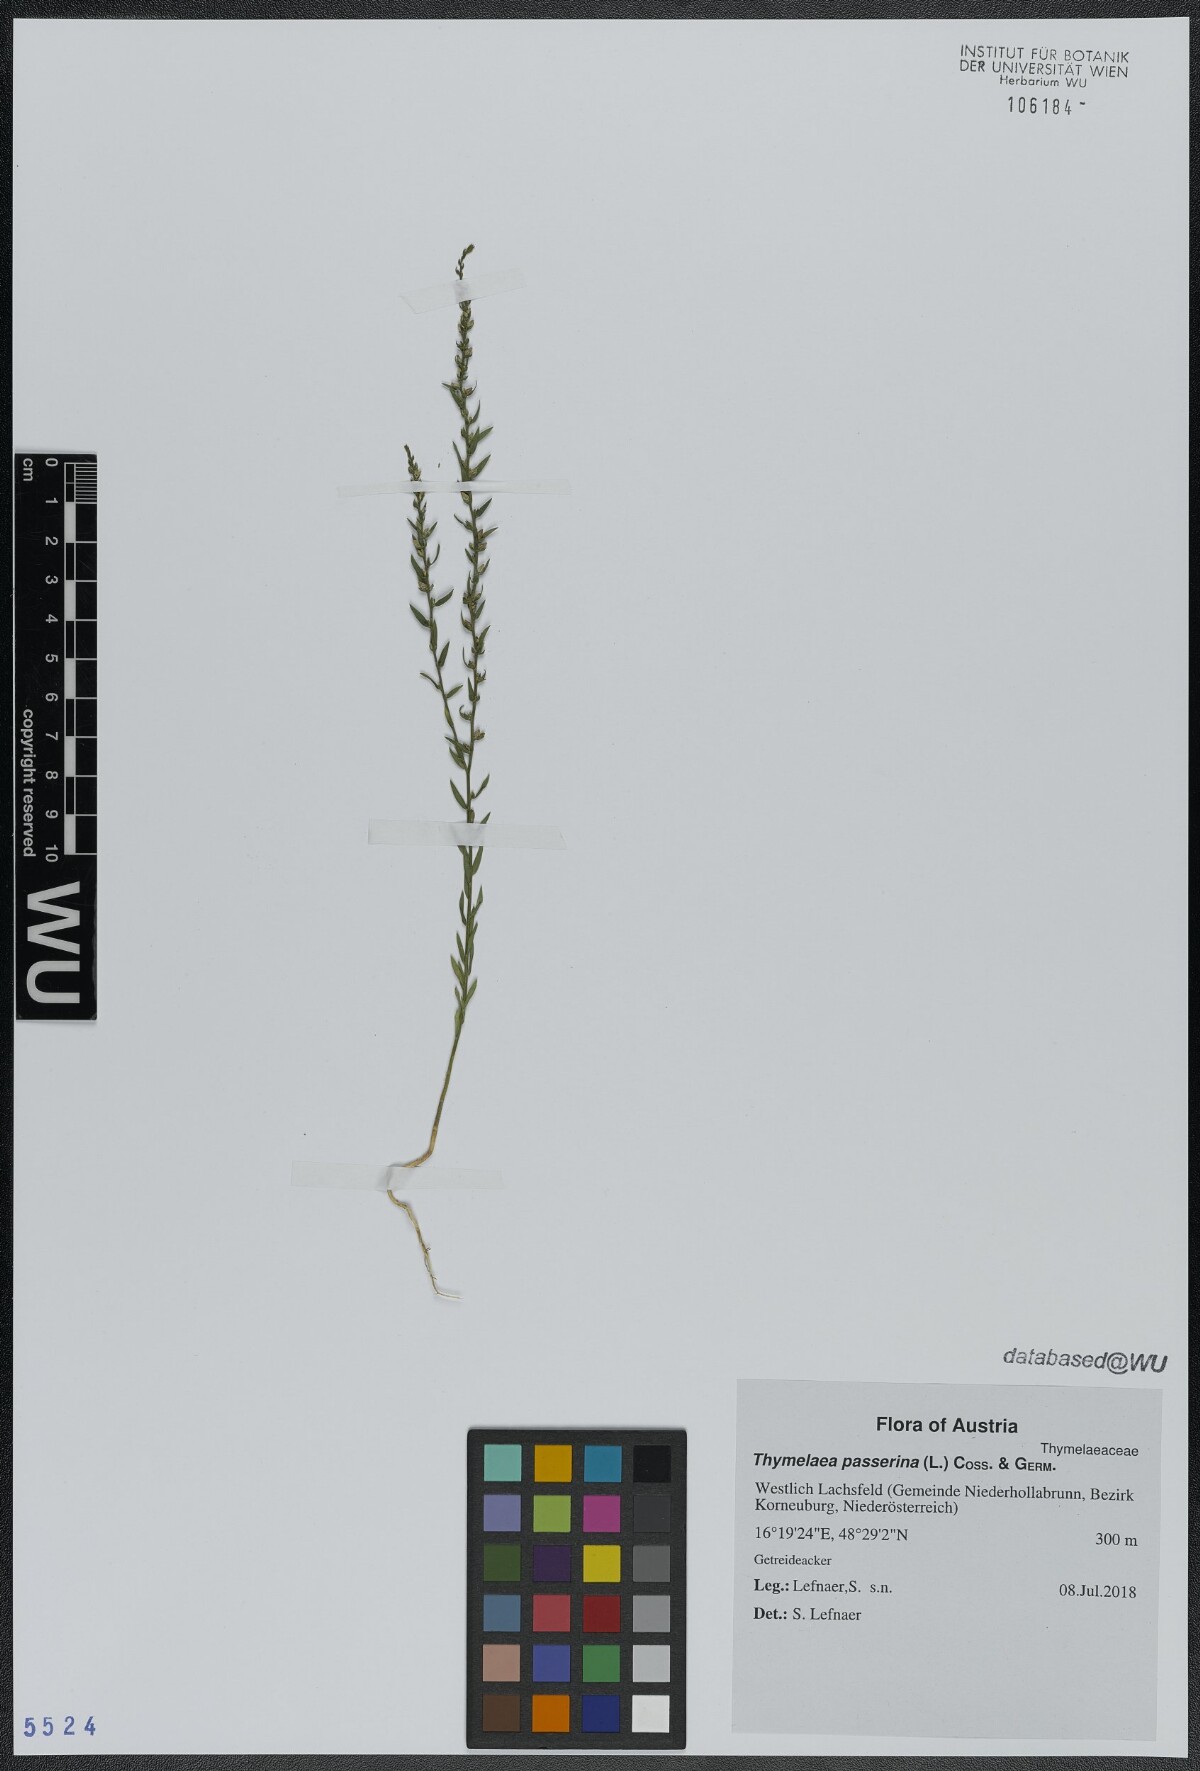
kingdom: Plantae
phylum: Tracheophyta
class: Magnoliopsida
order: Malvales
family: Thymelaeaceae
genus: Thymelaea
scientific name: Thymelaea passerina
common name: Annual thymelaea
